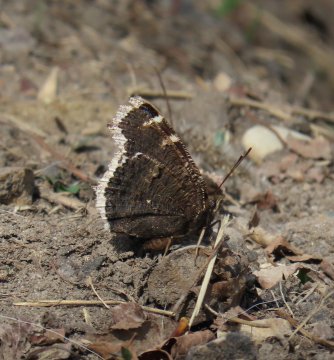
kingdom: Animalia
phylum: Arthropoda
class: Insecta
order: Lepidoptera
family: Nymphalidae
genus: Nymphalis
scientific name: Nymphalis antiopa
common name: Mourning Cloak
